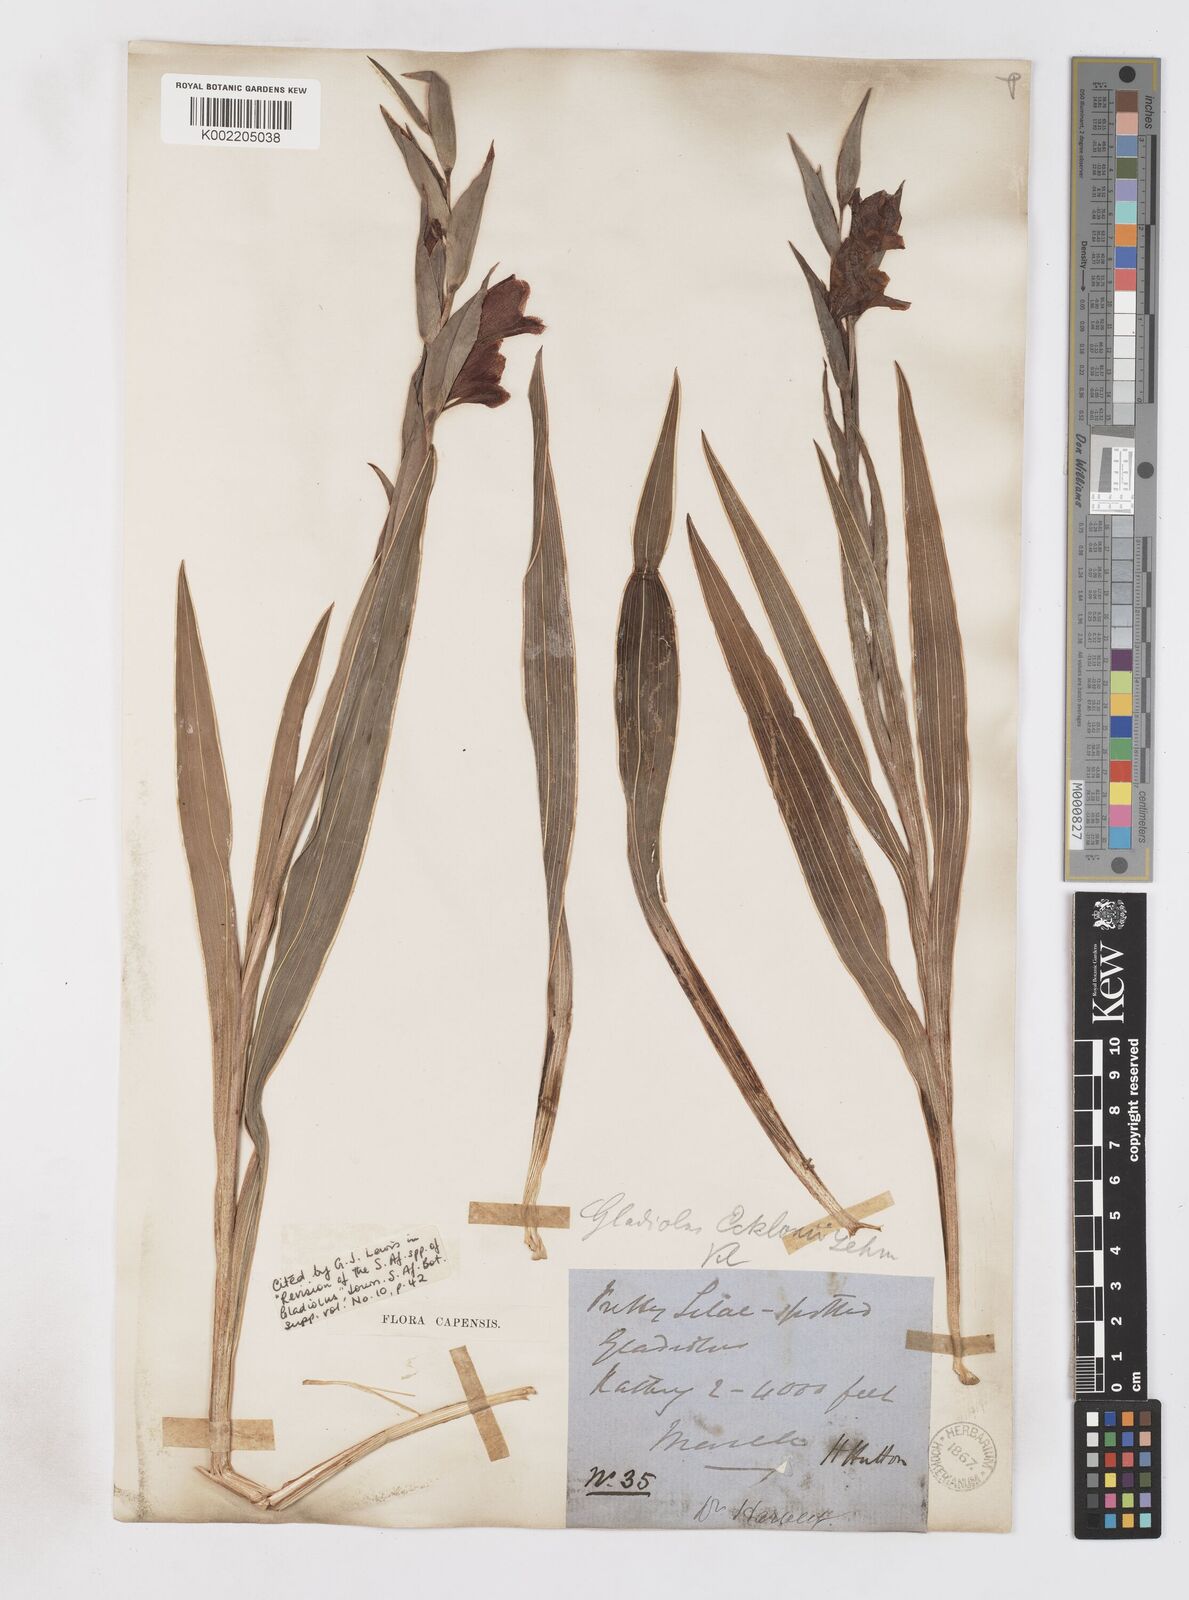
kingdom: Plantae
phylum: Tracheophyta
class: Liliopsida
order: Asparagales
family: Iridaceae
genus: Gladiolus
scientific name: Gladiolus ecklonii
